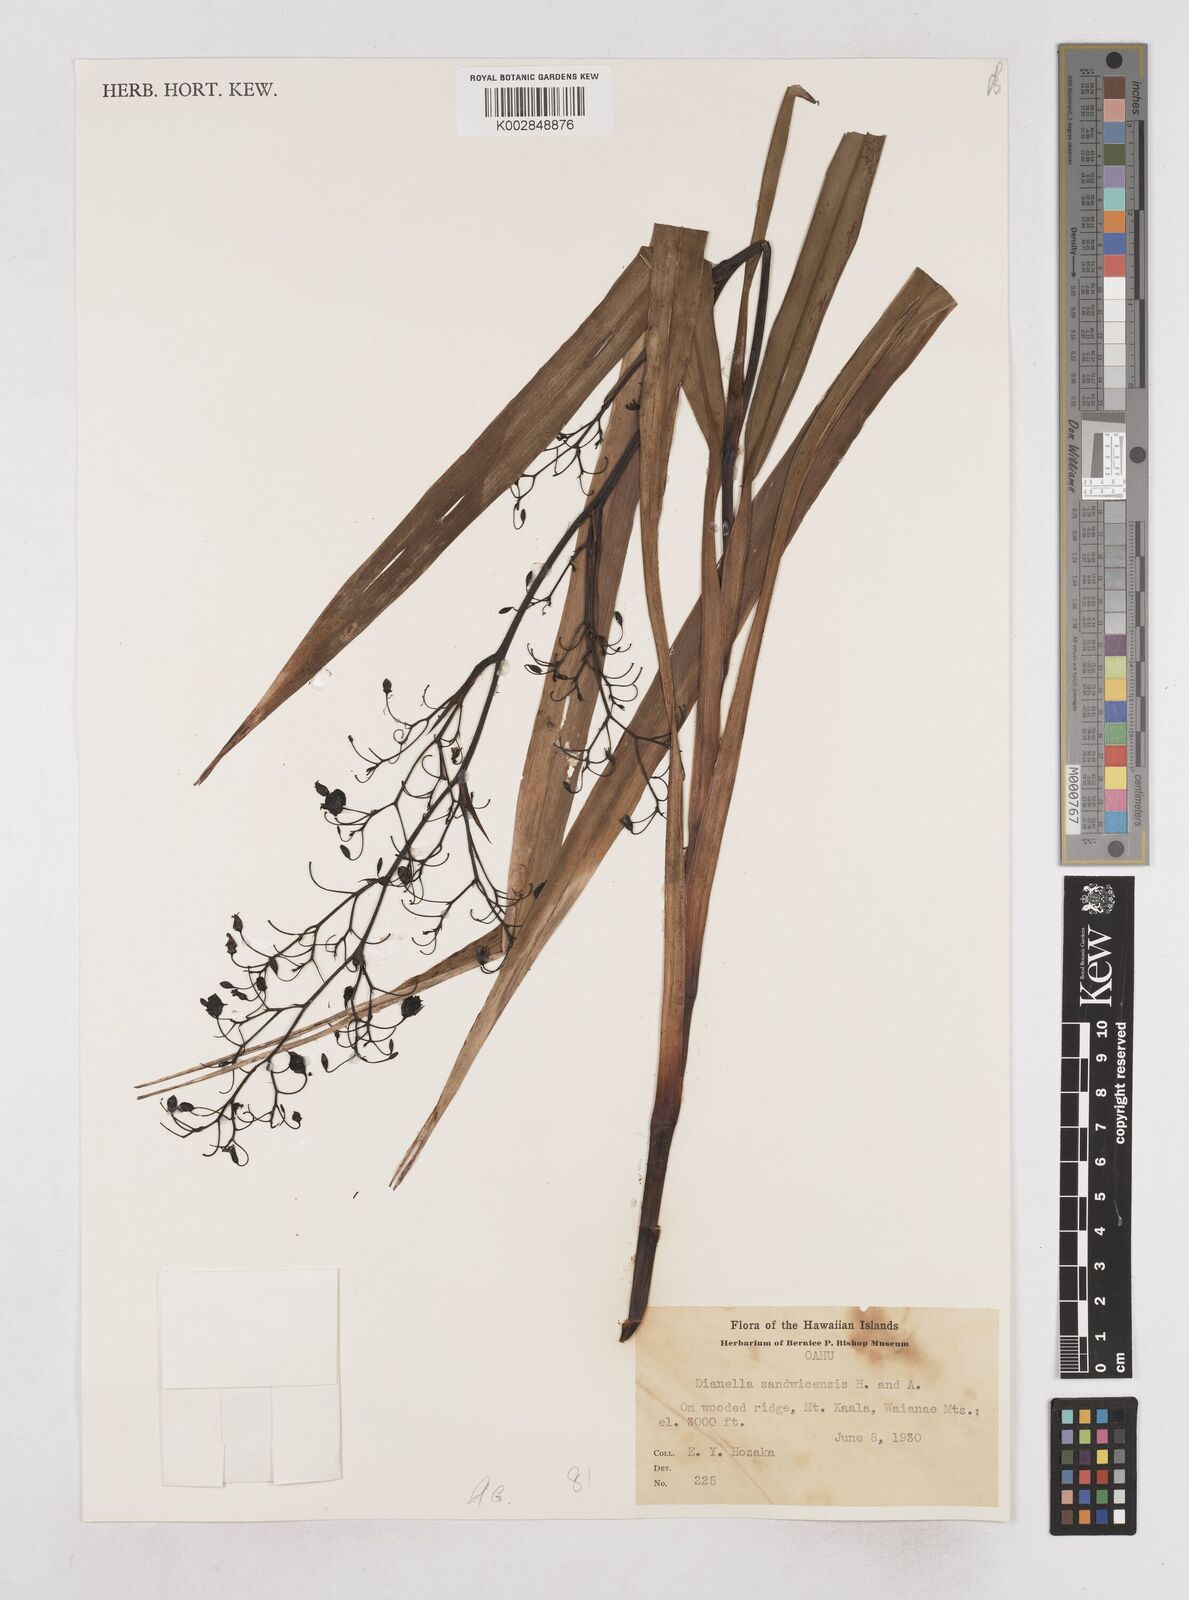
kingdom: Plantae
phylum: Tracheophyta
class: Liliopsida
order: Asparagales
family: Asphodelaceae
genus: Dianella
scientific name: Dianella sandwicensis
